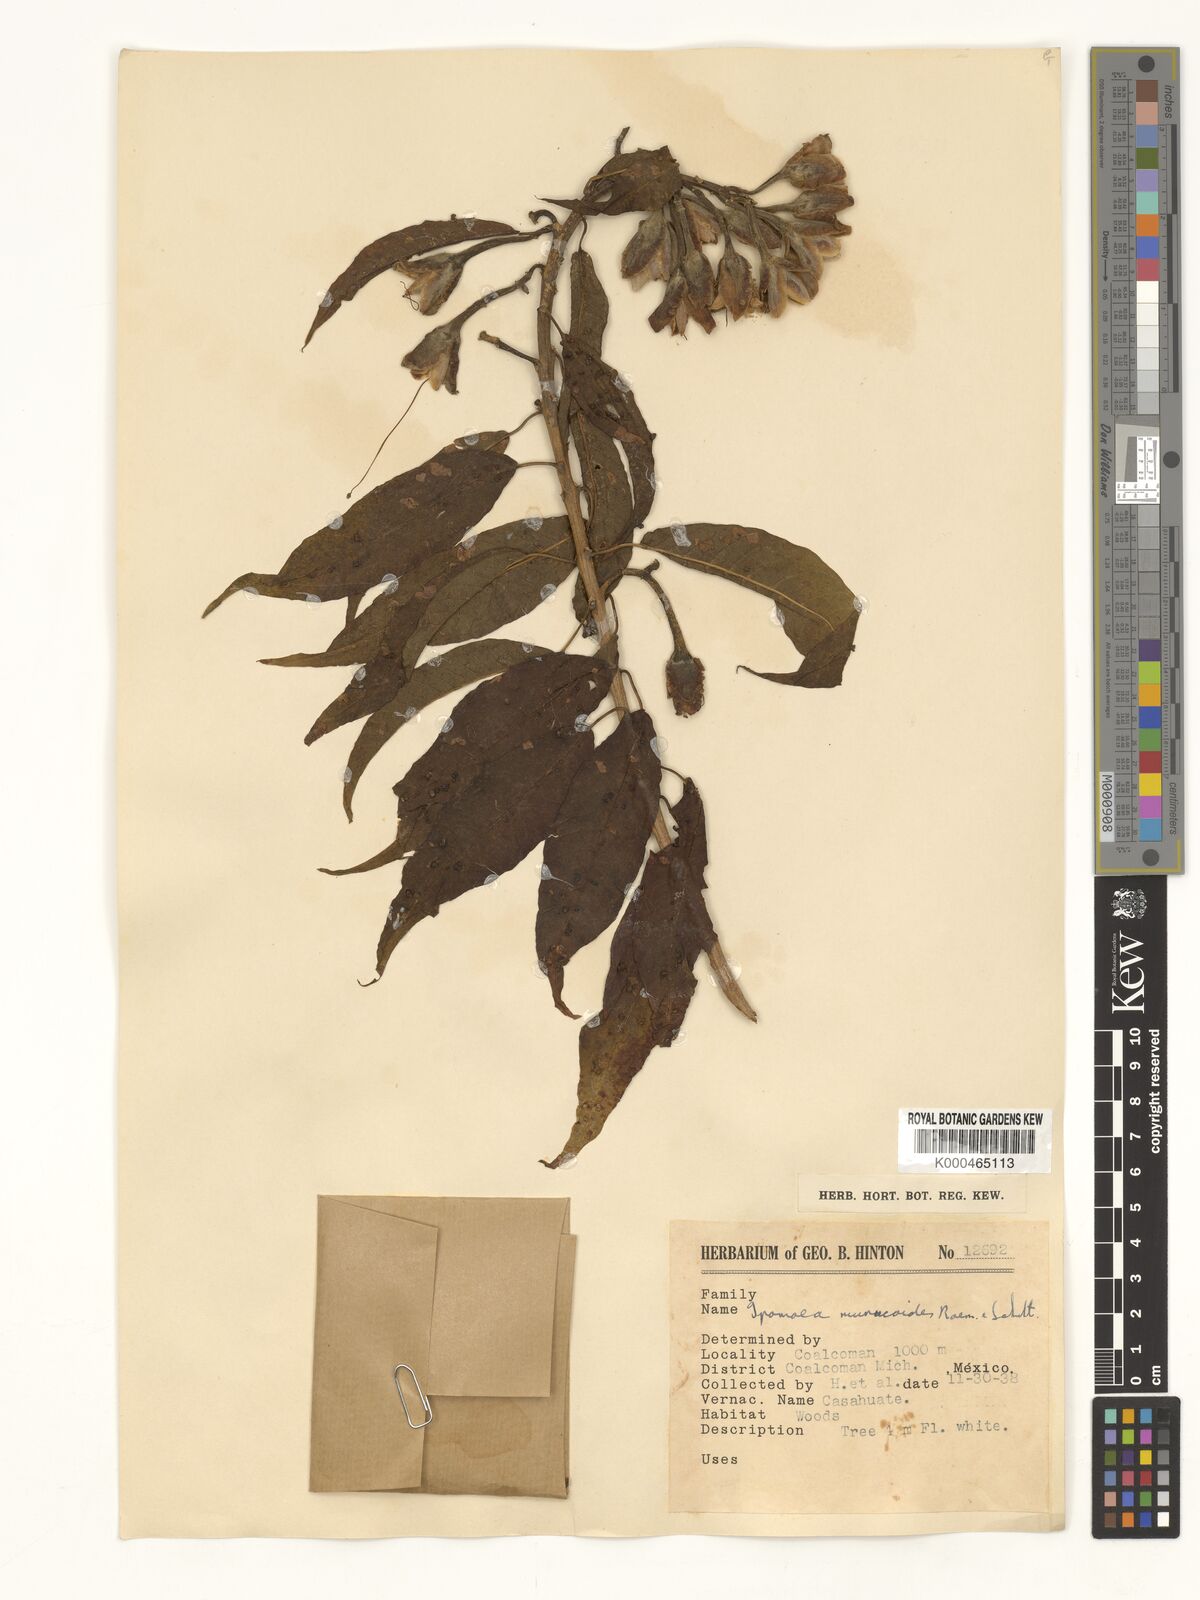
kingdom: Plantae
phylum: Tracheophyta
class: Magnoliopsida
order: Solanales
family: Convolvulaceae
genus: Ipomoea
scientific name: Ipomoea murucoides
